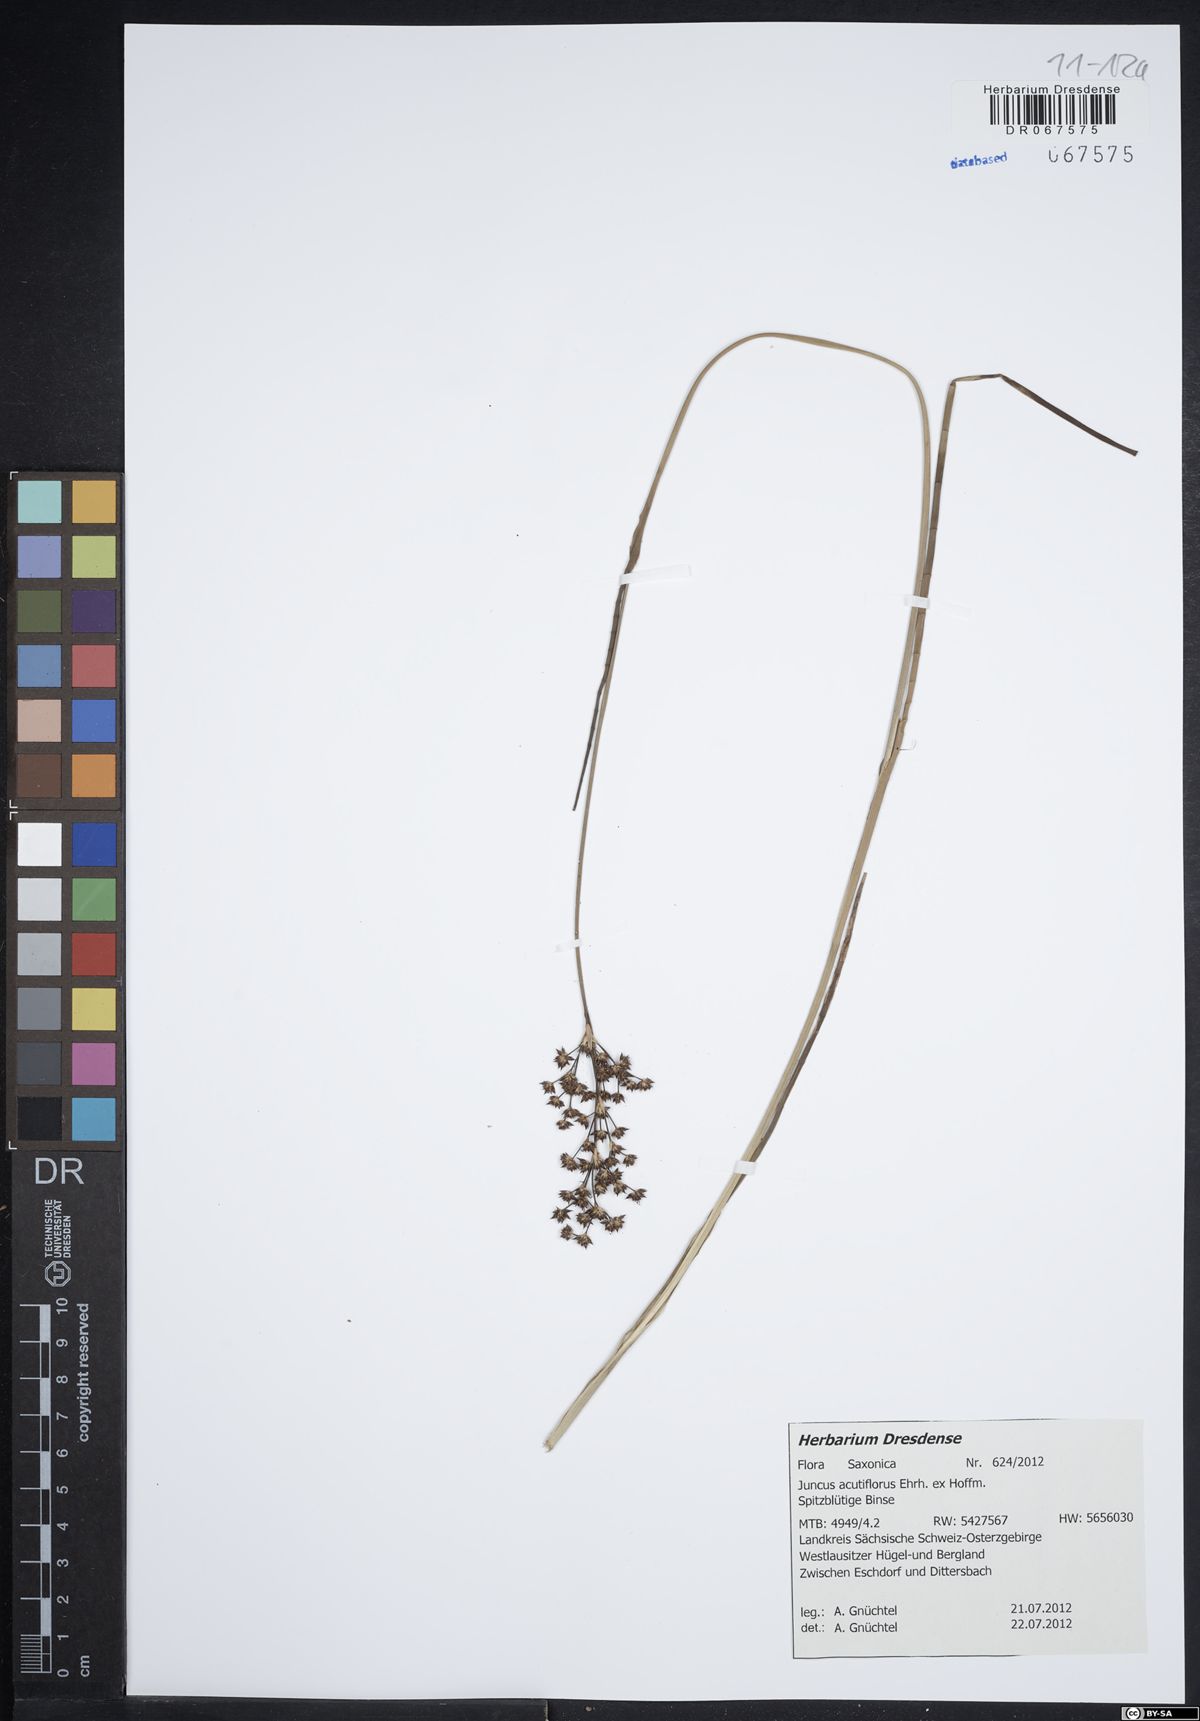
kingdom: Plantae
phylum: Tracheophyta
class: Liliopsida
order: Poales
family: Juncaceae
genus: Juncus
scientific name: Juncus acutiflorus
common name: Sharp-flowered rush
